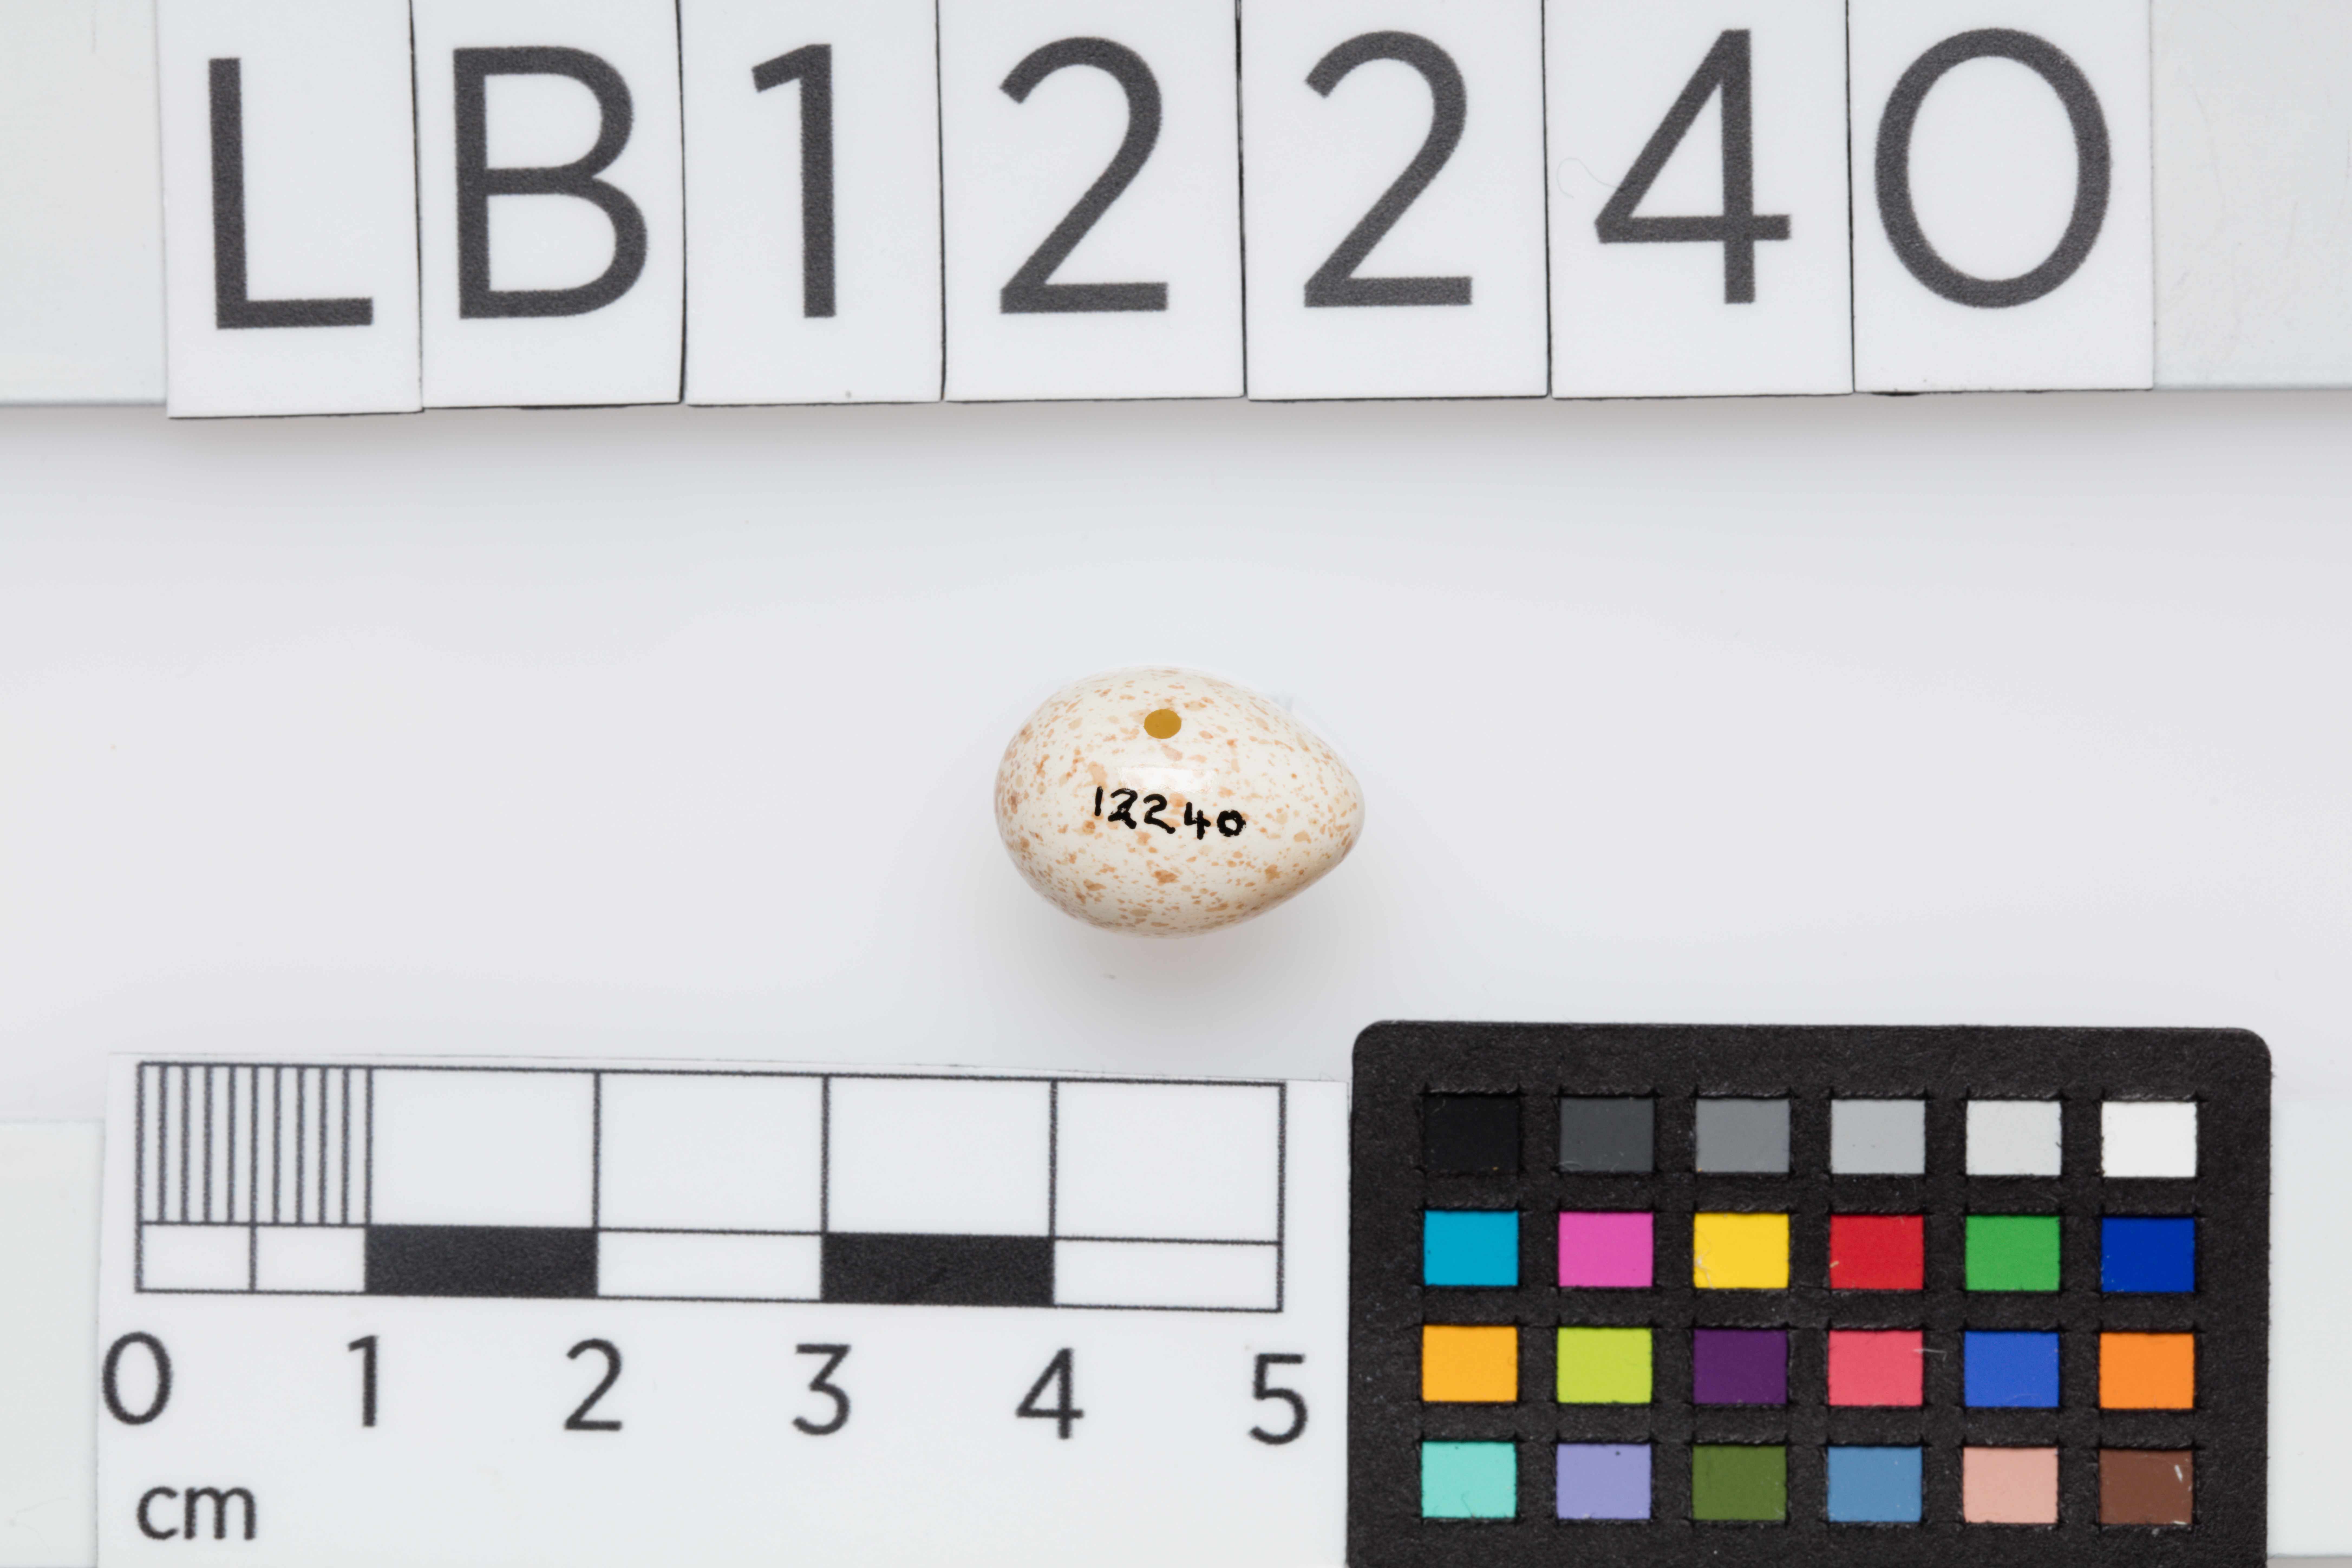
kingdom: Animalia
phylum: Chordata
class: Aves
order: Passeriformes
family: Paridae
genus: Cyanistes
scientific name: Cyanistes caeruleus
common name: Eurasian blue tit
